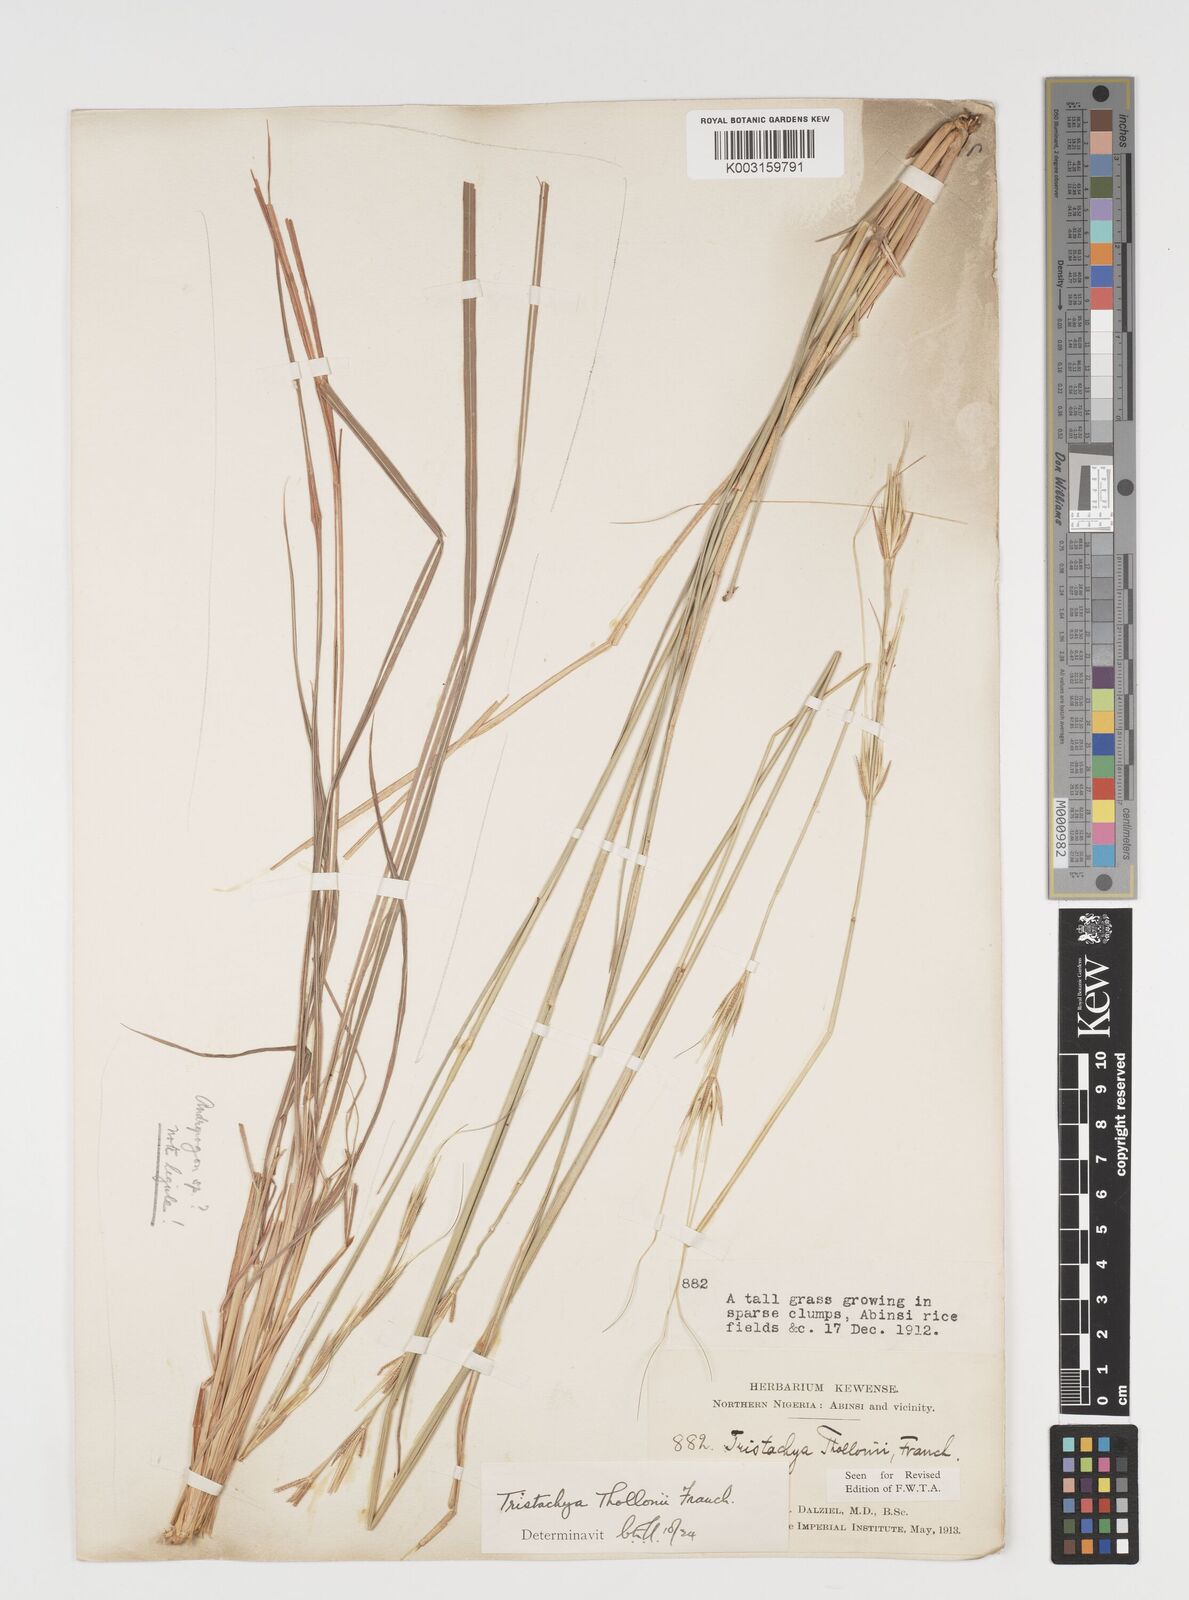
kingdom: Plantae
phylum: Tracheophyta
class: Liliopsida
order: Poales
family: Poaceae
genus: Tristachya
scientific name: Tristachya thollonii
